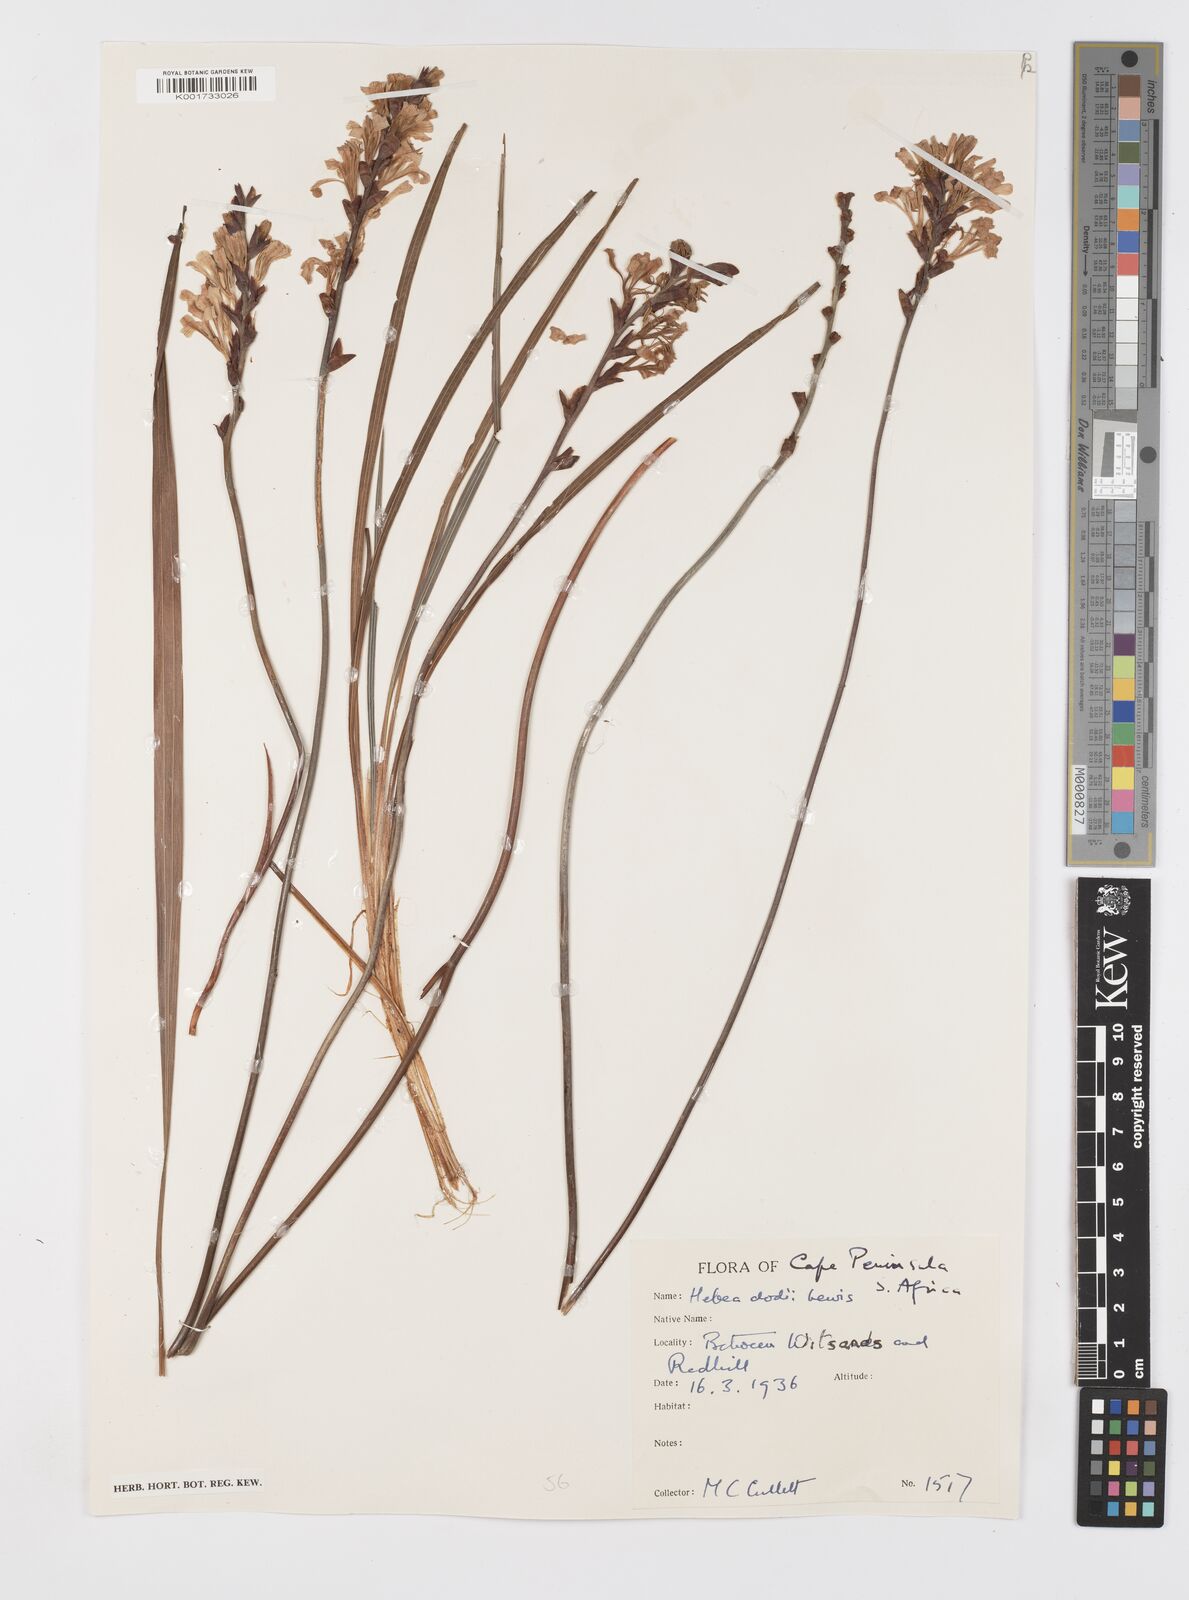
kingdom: Plantae
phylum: Tracheophyta
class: Liliopsida
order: Asparagales
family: Iridaceae
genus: Tritoniopsis
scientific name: Tritoniopsis dodii
